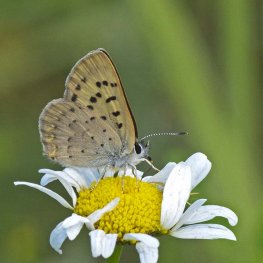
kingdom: Animalia
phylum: Arthropoda
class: Insecta
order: Lepidoptera
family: Lycaenidae
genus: Epidemia
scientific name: Epidemia dorcas
